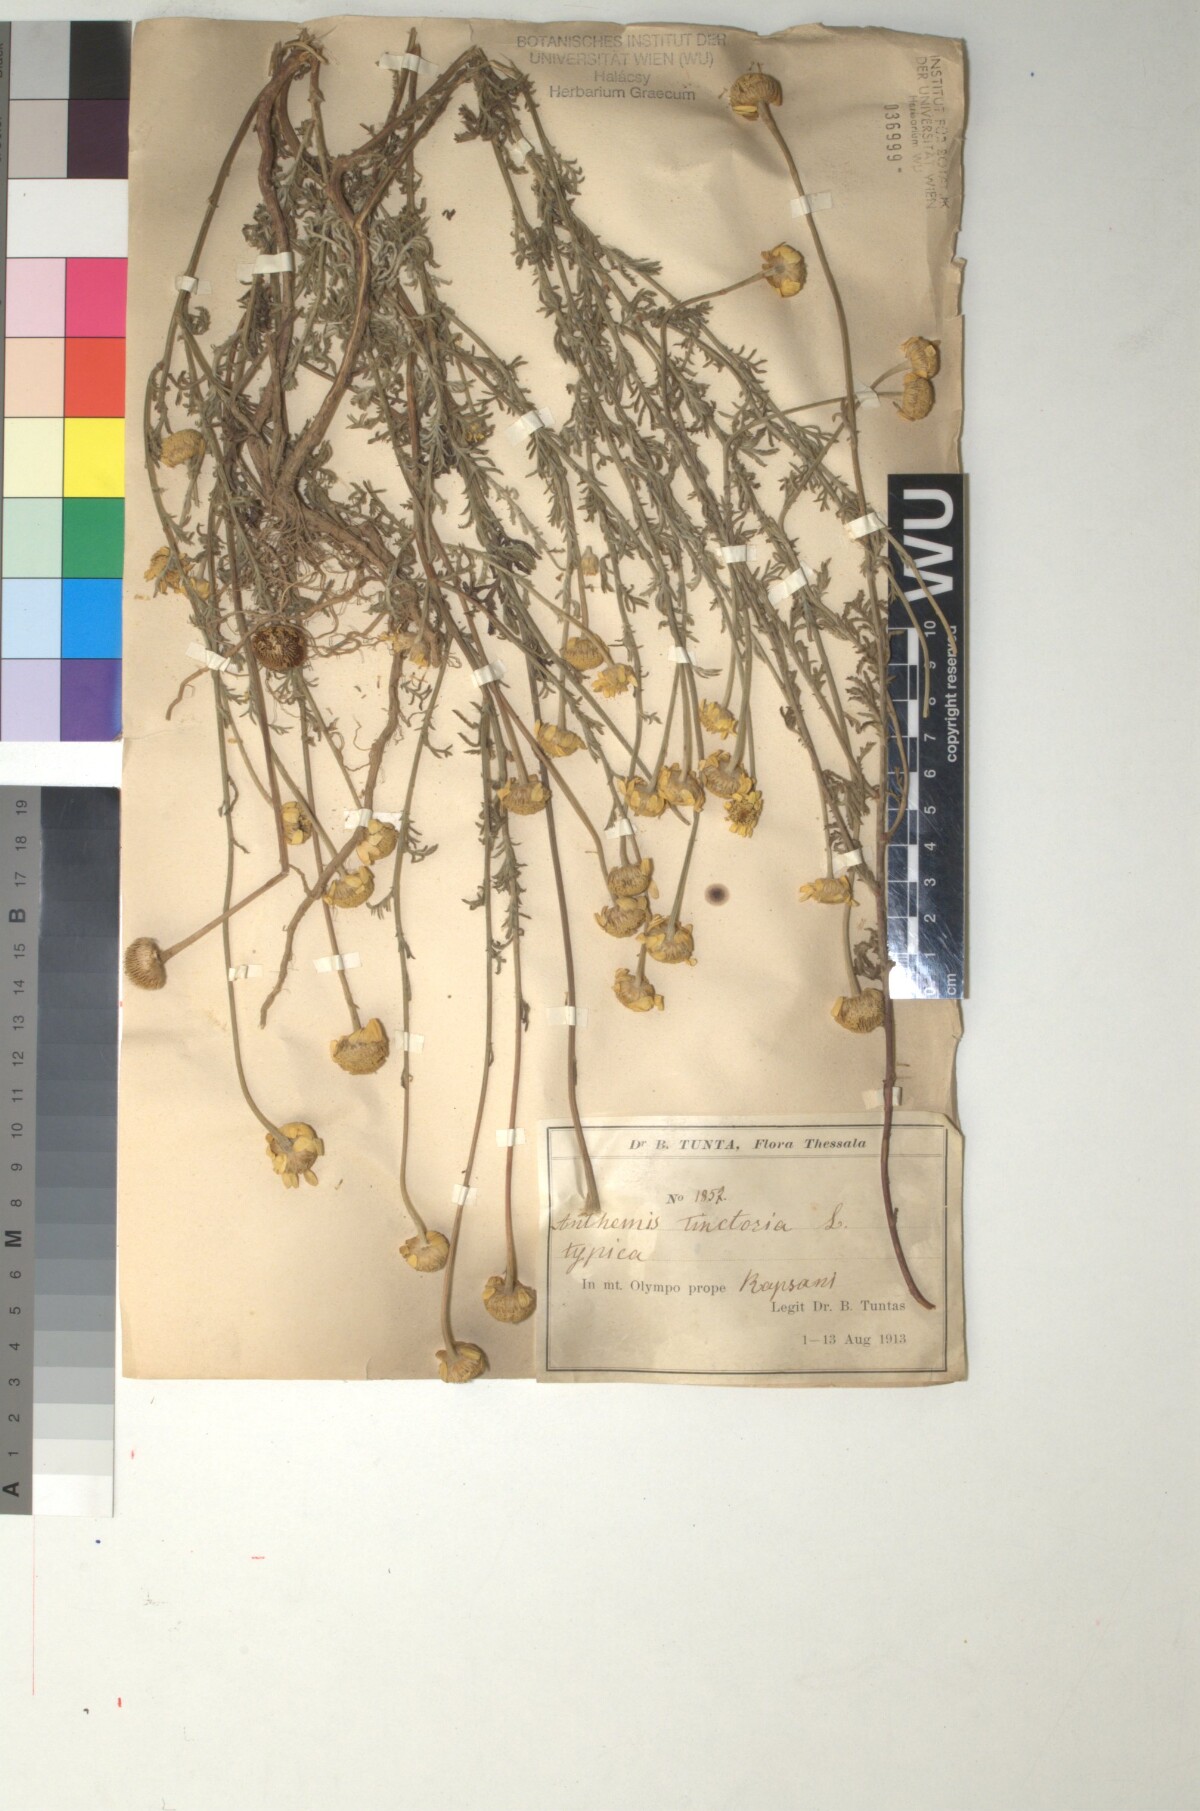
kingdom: Plantae
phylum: Tracheophyta
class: Magnoliopsida
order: Asterales
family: Asteraceae
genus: Cota
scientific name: Cota tinctoria
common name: Golden chamomile
